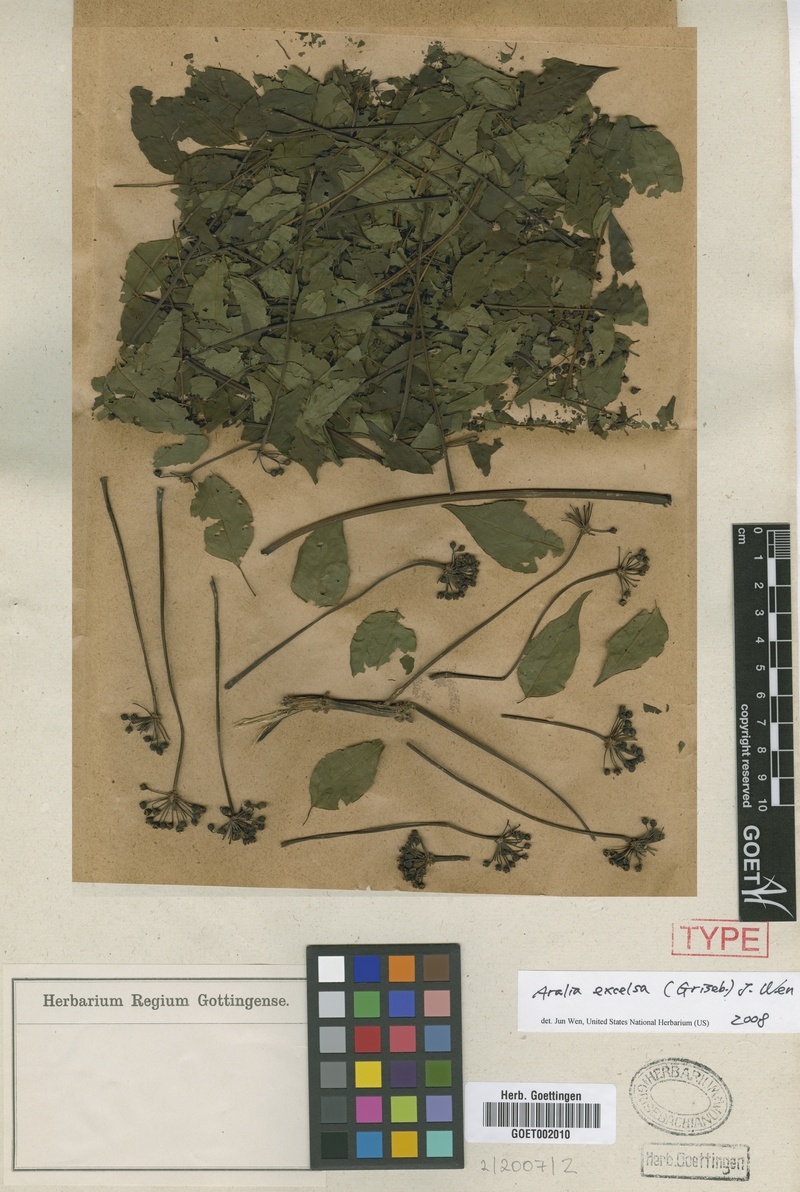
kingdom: Plantae
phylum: Tracheophyta
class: Magnoliopsida
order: Apiales
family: Araliaceae
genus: Aralia
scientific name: Aralia excelsa
